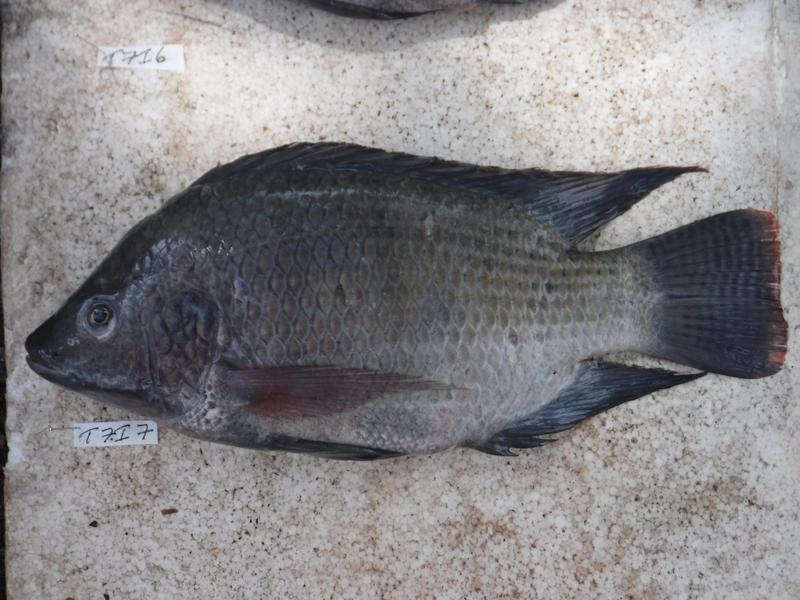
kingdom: Animalia
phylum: Chordata
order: Perciformes
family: Cichlidae
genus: Oreochromis
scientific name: Oreochromis niloticus
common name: Nile tilapia
